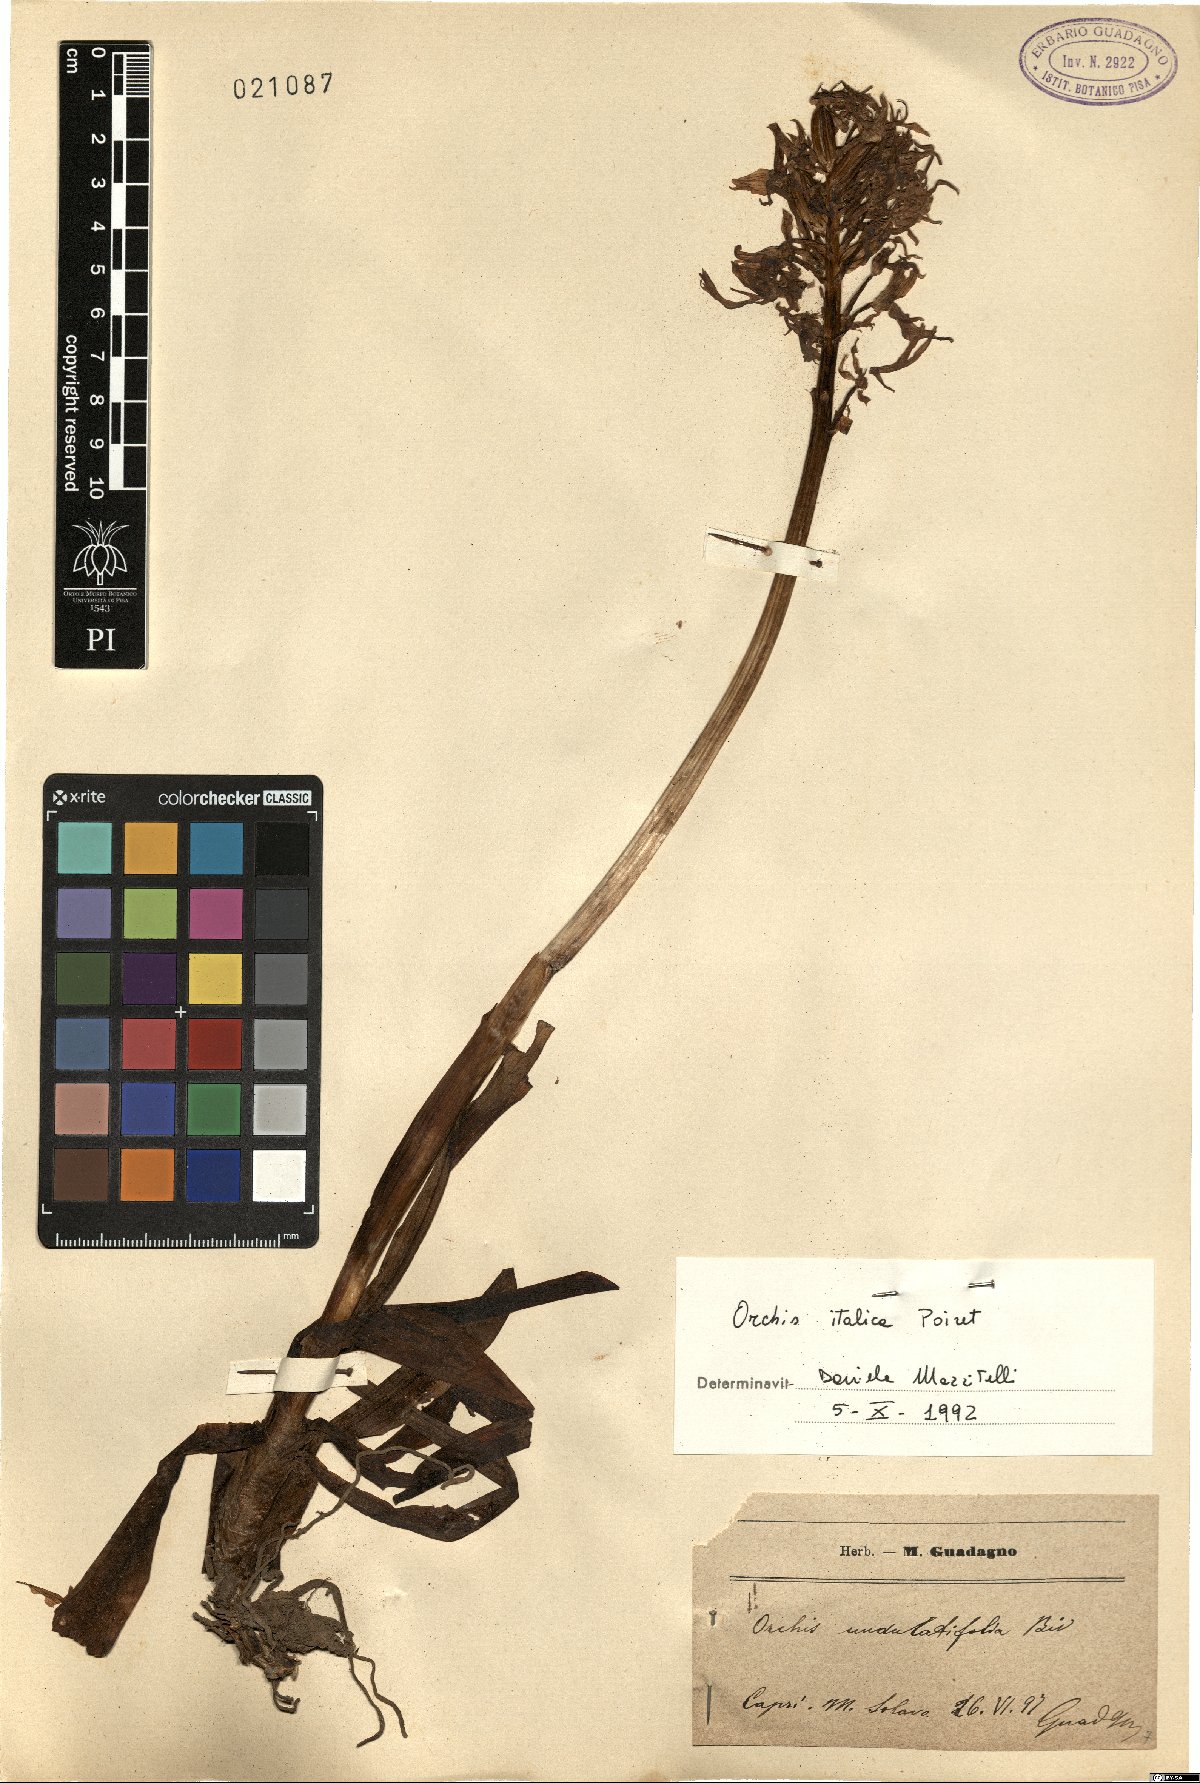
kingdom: Plantae
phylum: Tracheophyta
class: Liliopsida
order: Asparagales
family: Orchidaceae
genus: Orchis
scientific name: Orchis italica
